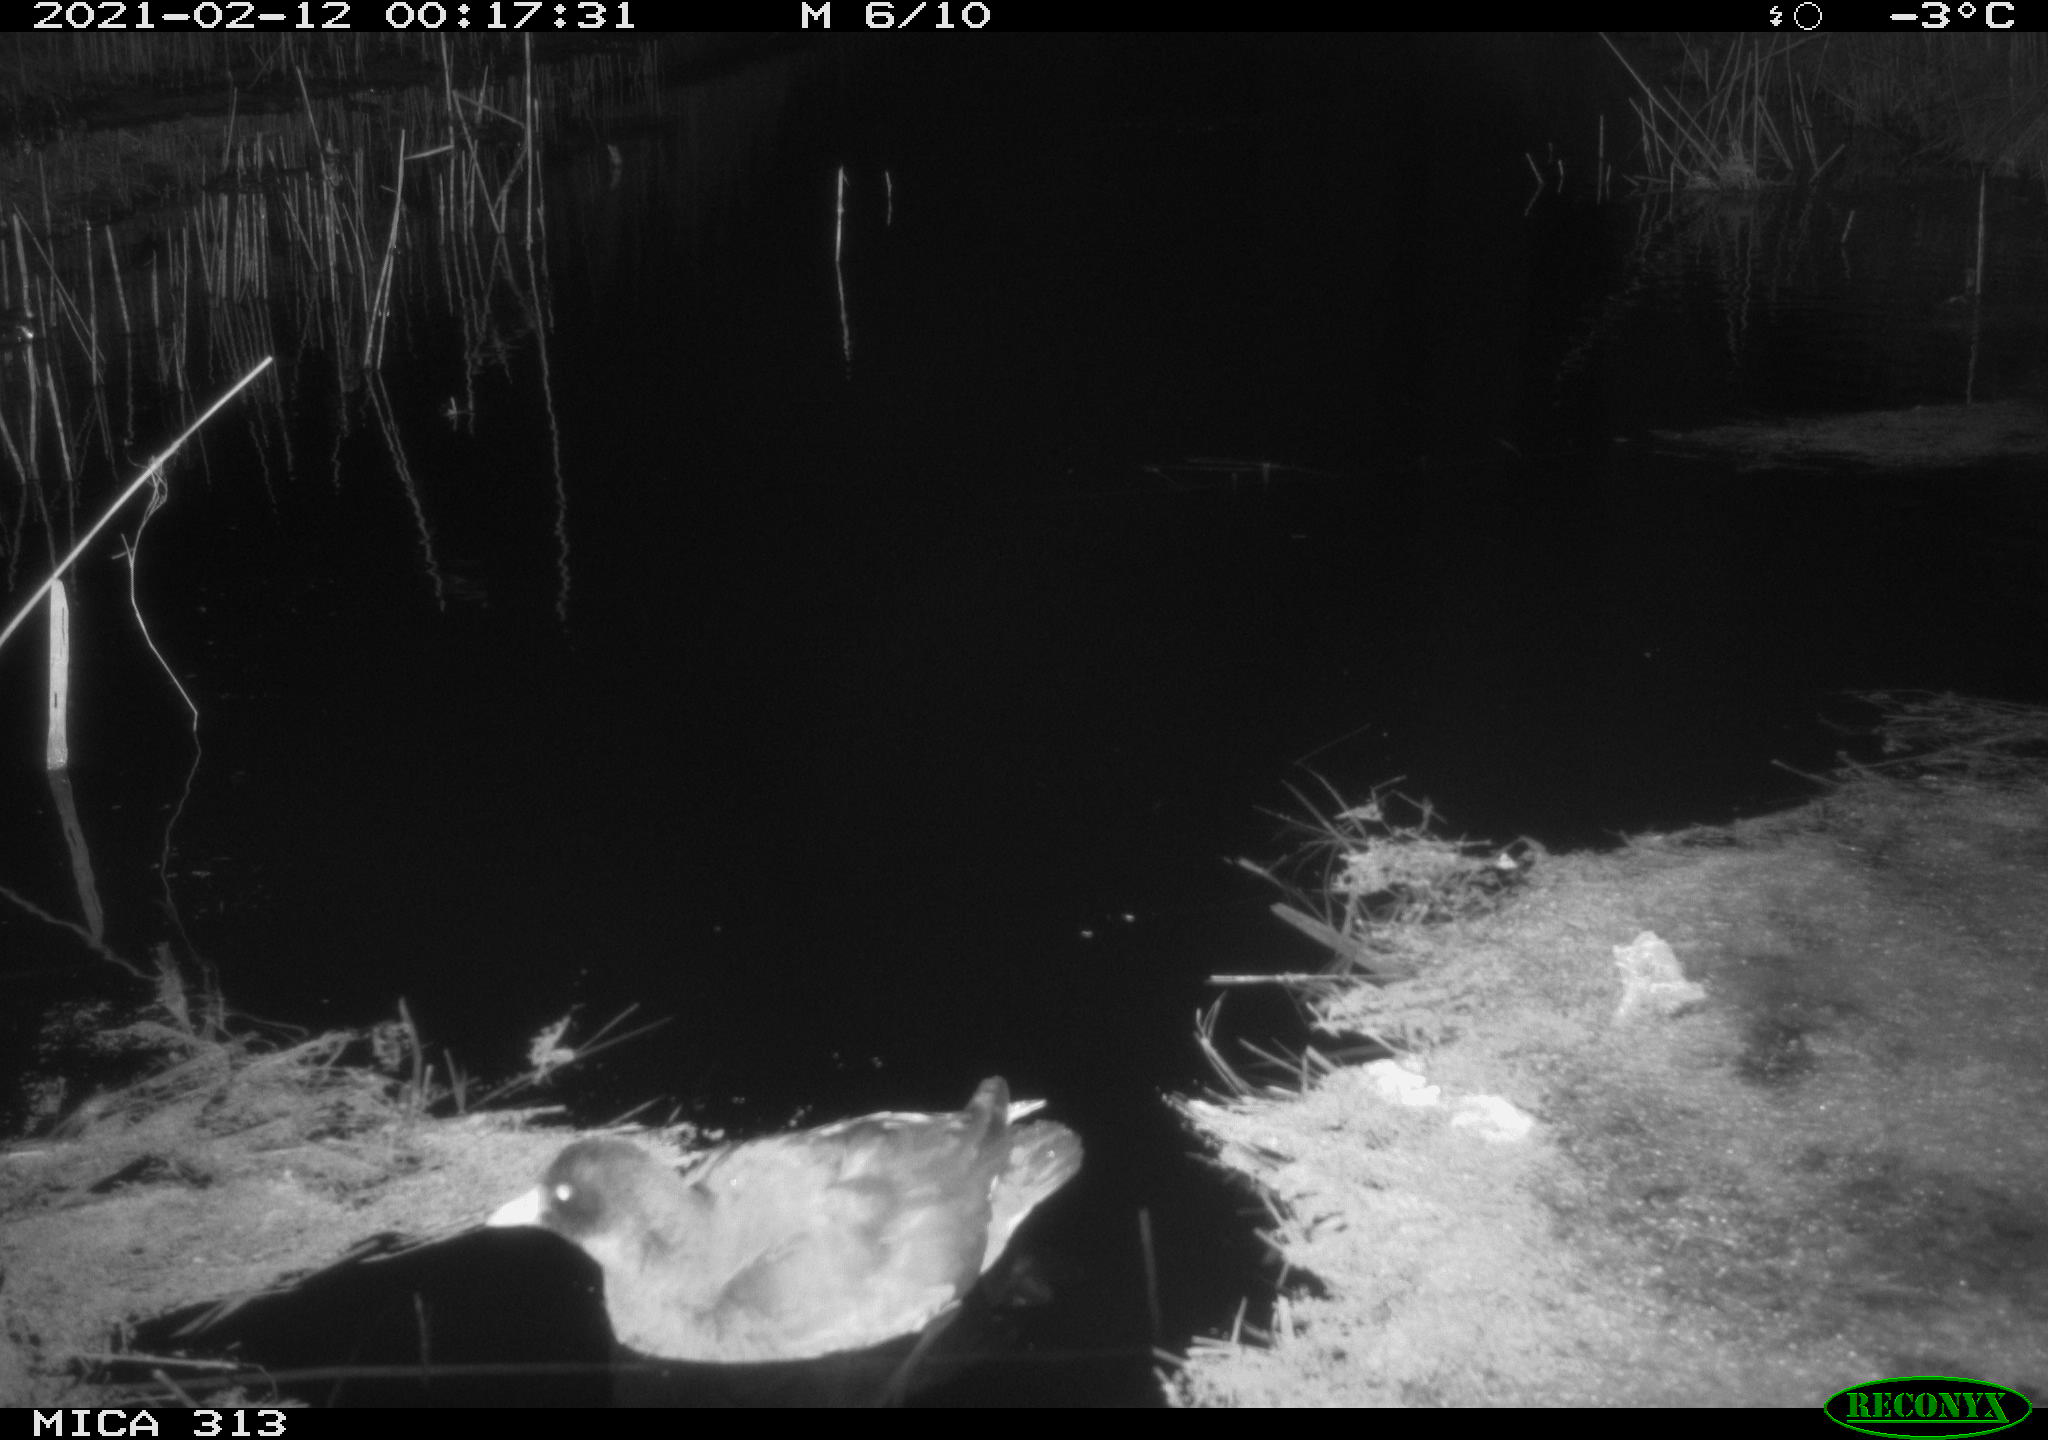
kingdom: Animalia
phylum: Chordata
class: Aves
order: Anseriformes
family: Anatidae
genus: Anas
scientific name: Anas
